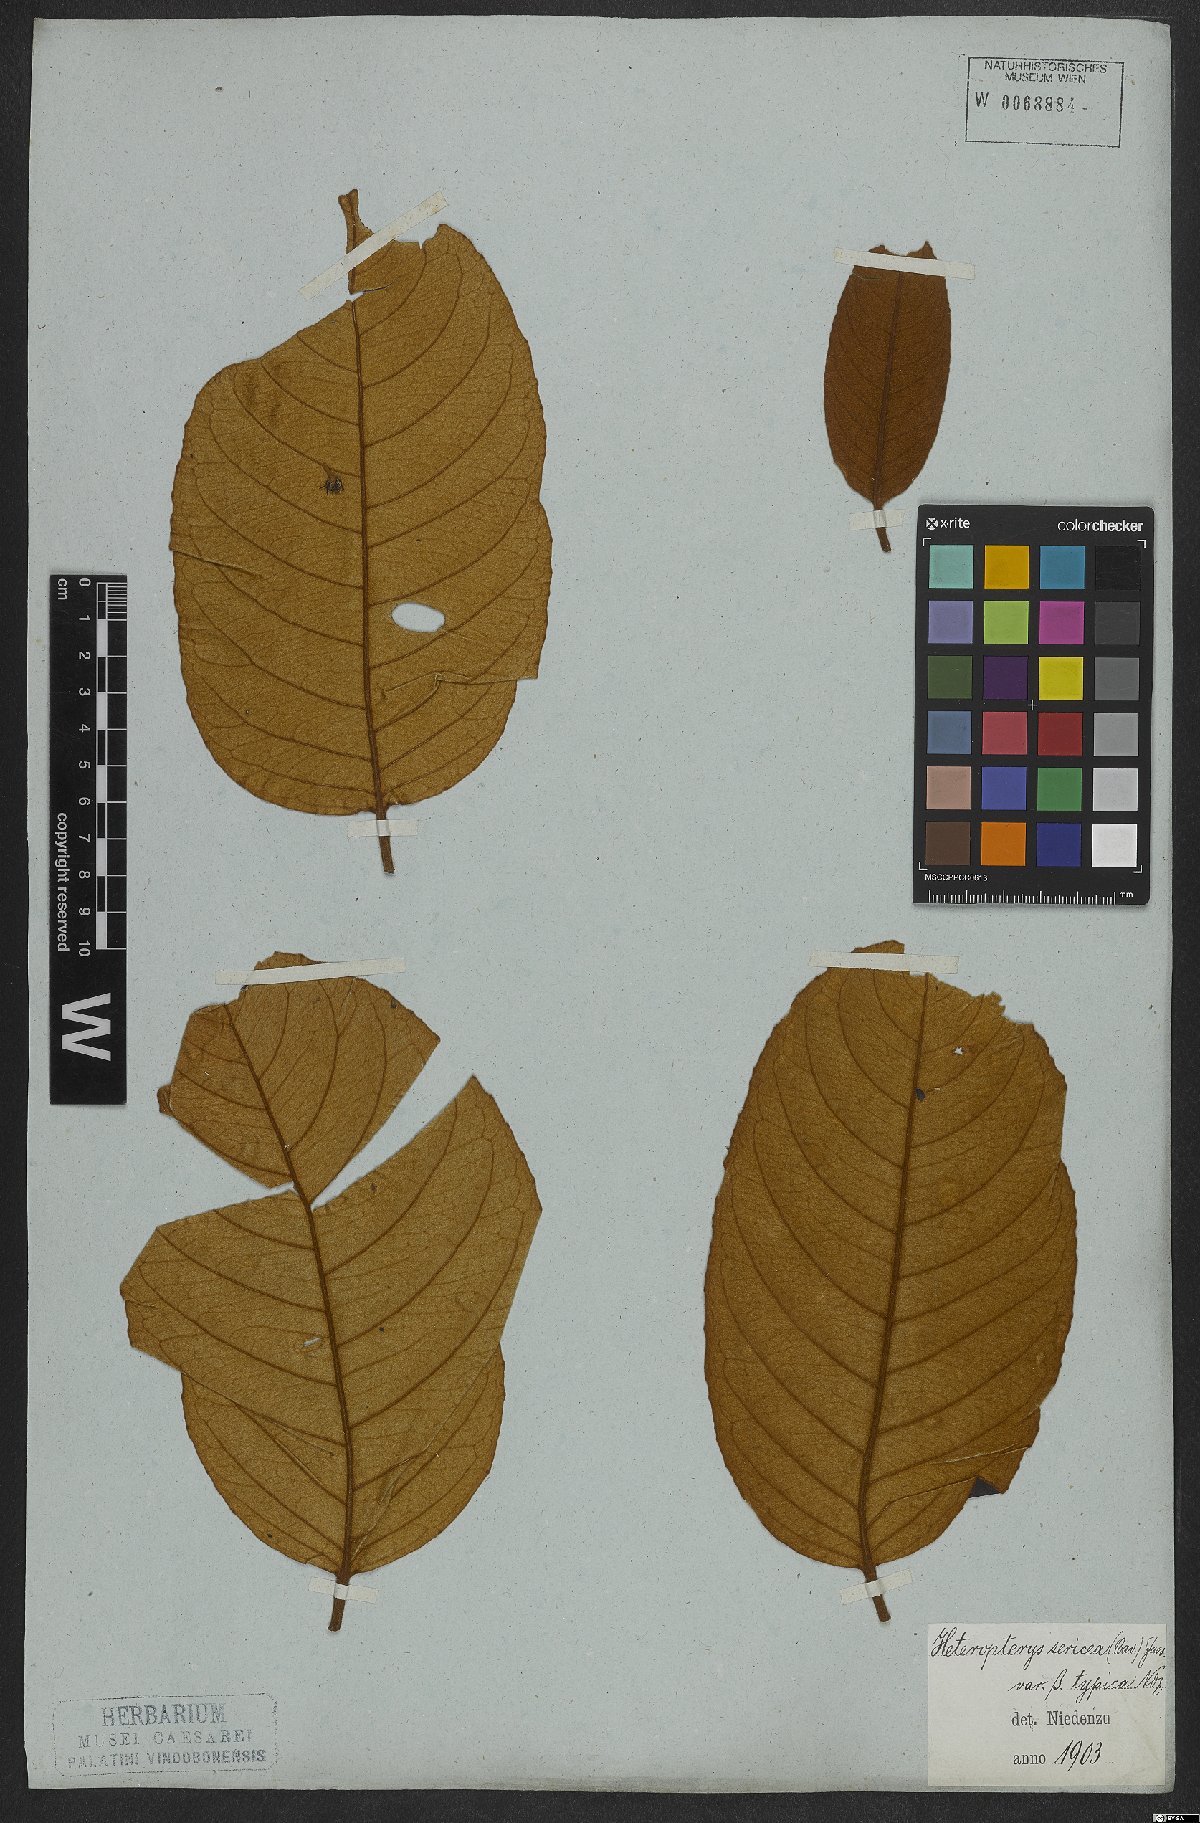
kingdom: Plantae
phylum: Tracheophyta
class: Magnoliopsida
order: Malpighiales
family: Malpighiaceae
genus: Heteropterys
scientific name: Heteropterys sericea
